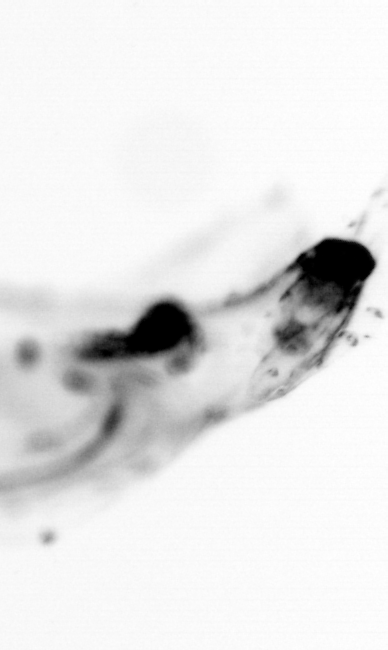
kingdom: Animalia
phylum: Chordata
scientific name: Chordata
